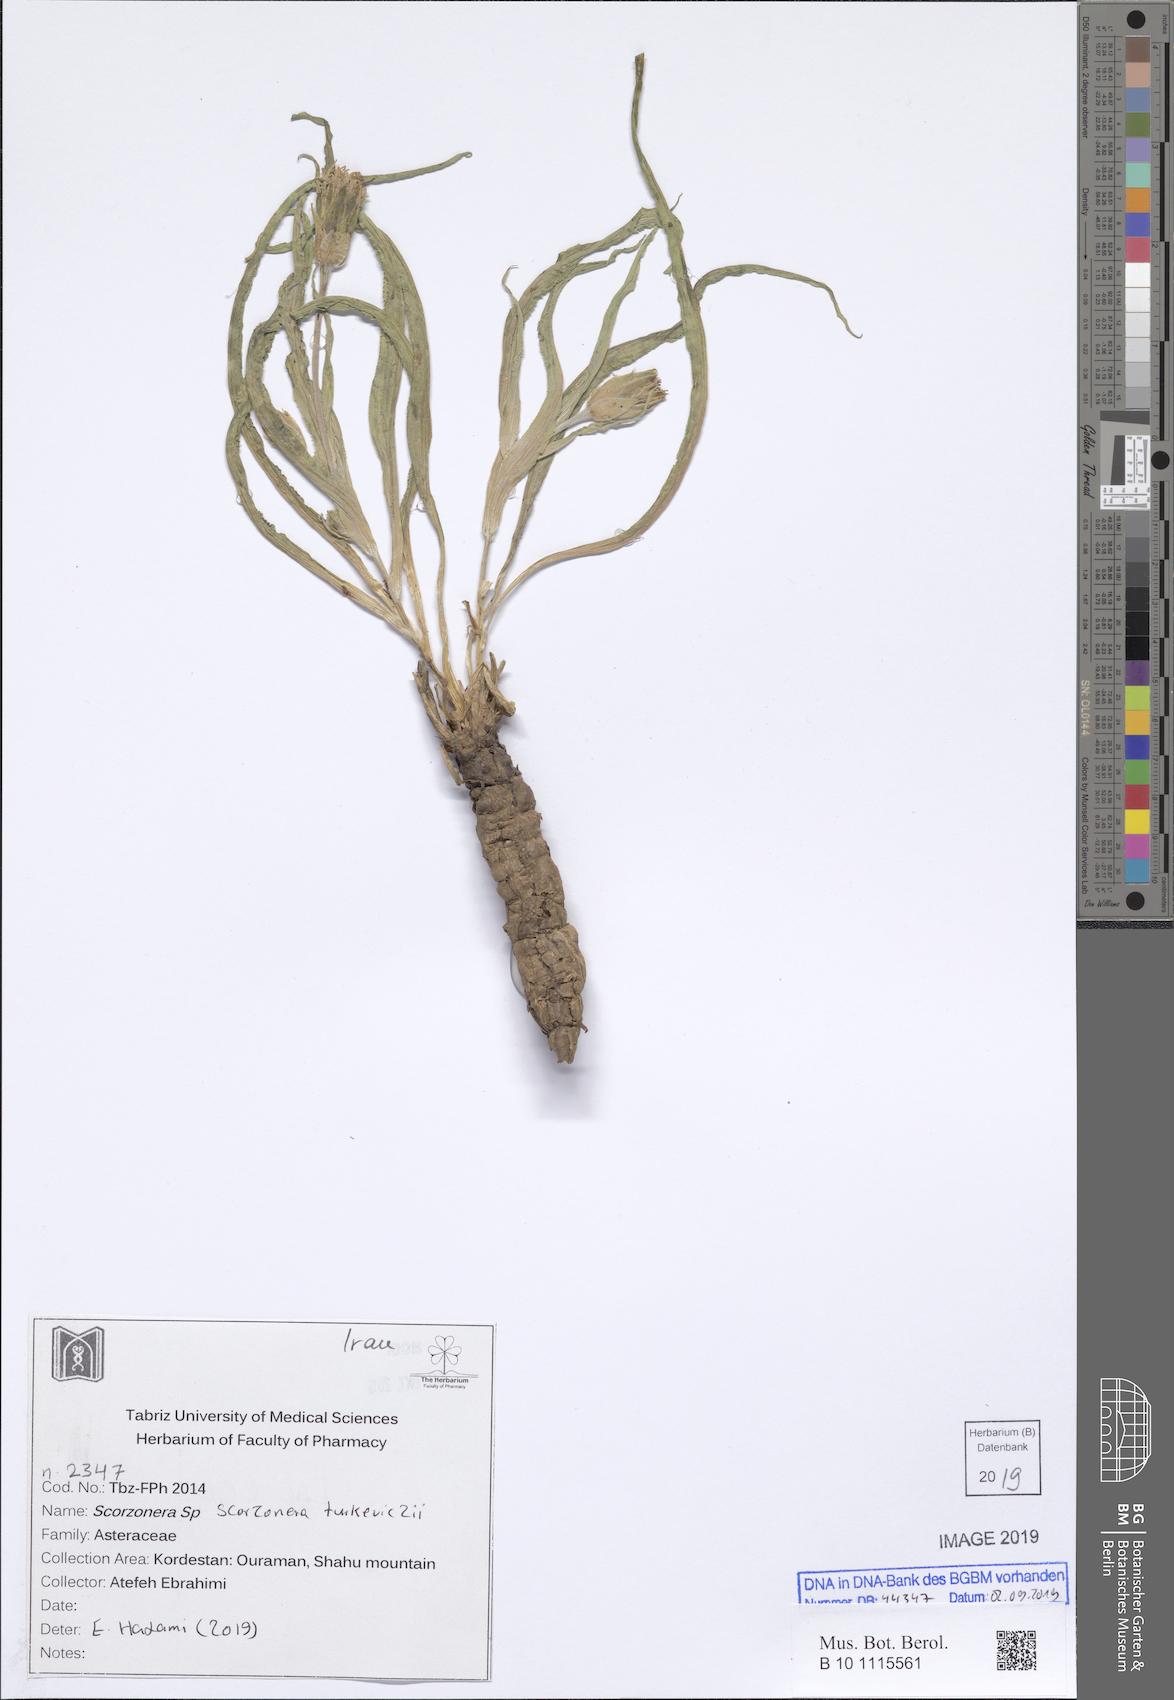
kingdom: Plantae
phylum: Tracheophyta
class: Magnoliopsida
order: Asterales
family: Asteraceae
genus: Pseudopodospermum
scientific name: Pseudopodospermum turkeviczii
